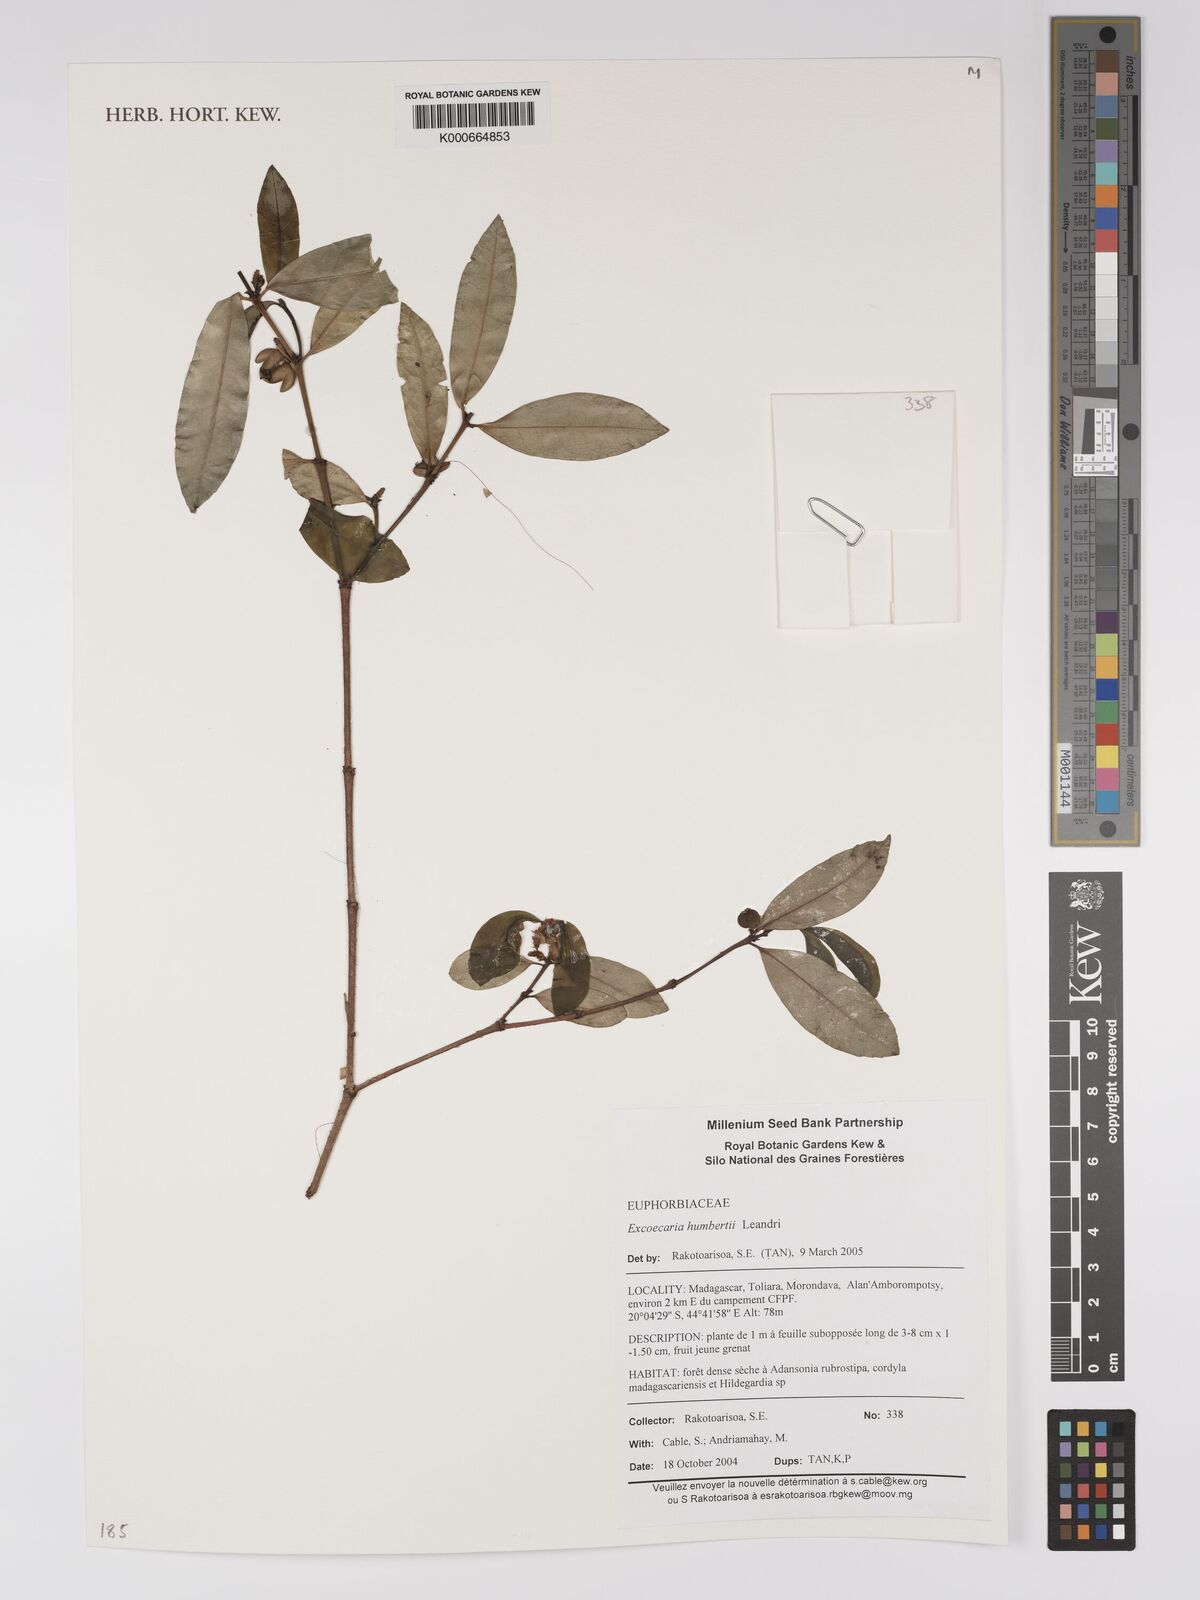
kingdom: Plantae
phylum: Tracheophyta
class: Magnoliopsida
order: Malpighiales
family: Euphorbiaceae
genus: Excoecaria
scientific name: Excoecaria
